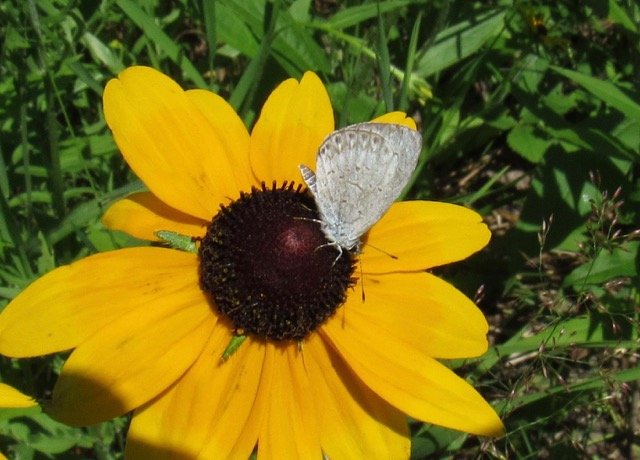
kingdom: Animalia
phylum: Arthropoda
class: Insecta
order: Lepidoptera
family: Lycaenidae
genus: Celastrina
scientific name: Celastrina
